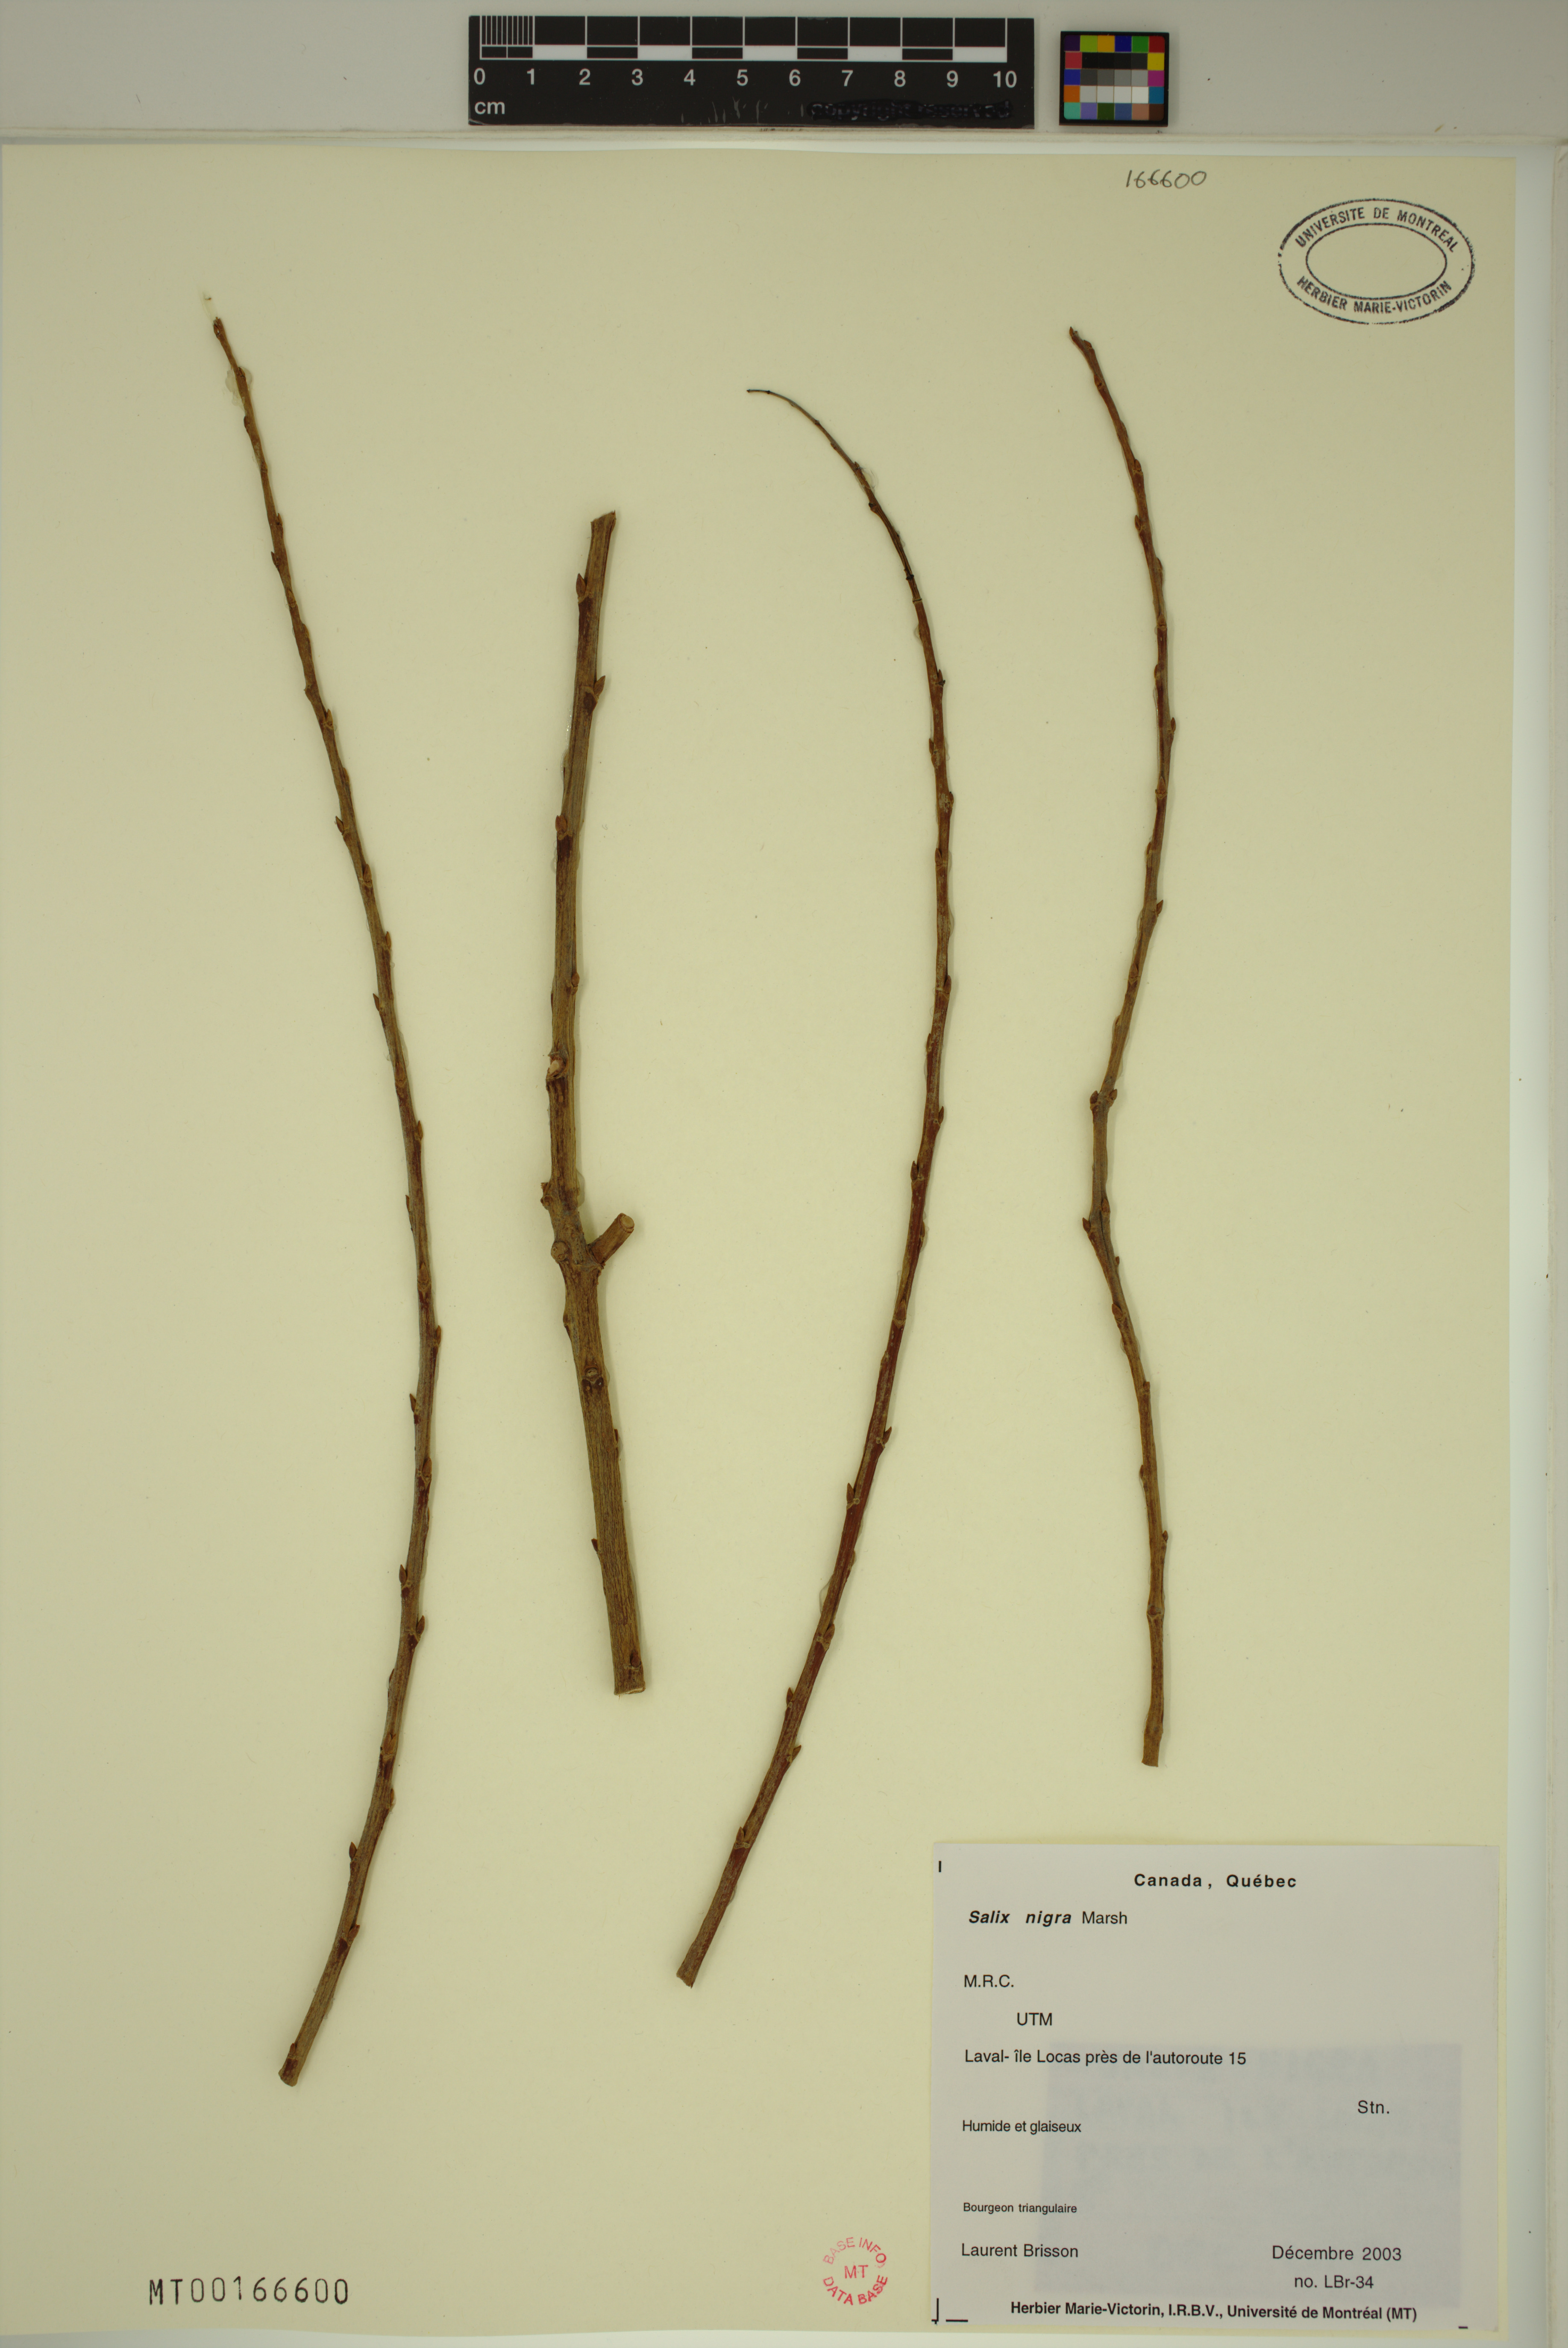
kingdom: Plantae
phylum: Tracheophyta
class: Magnoliopsida
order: Malpighiales
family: Salicaceae
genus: Salix
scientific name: Salix nigra
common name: Black willow
